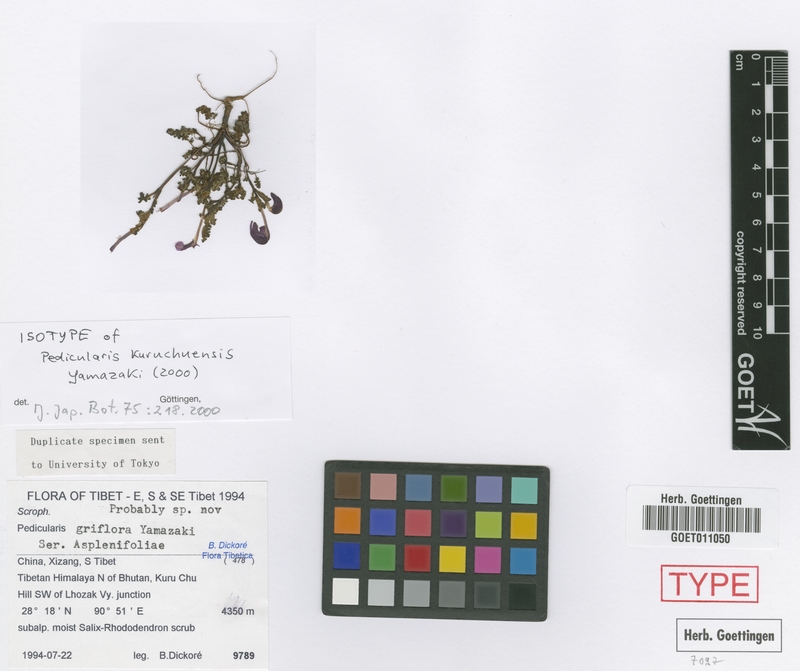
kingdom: Plantae
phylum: Tracheophyta
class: Magnoliopsida
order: Lamiales
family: Orobanchaceae
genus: Pedicularis
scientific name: Pedicularis kuruchuensis
